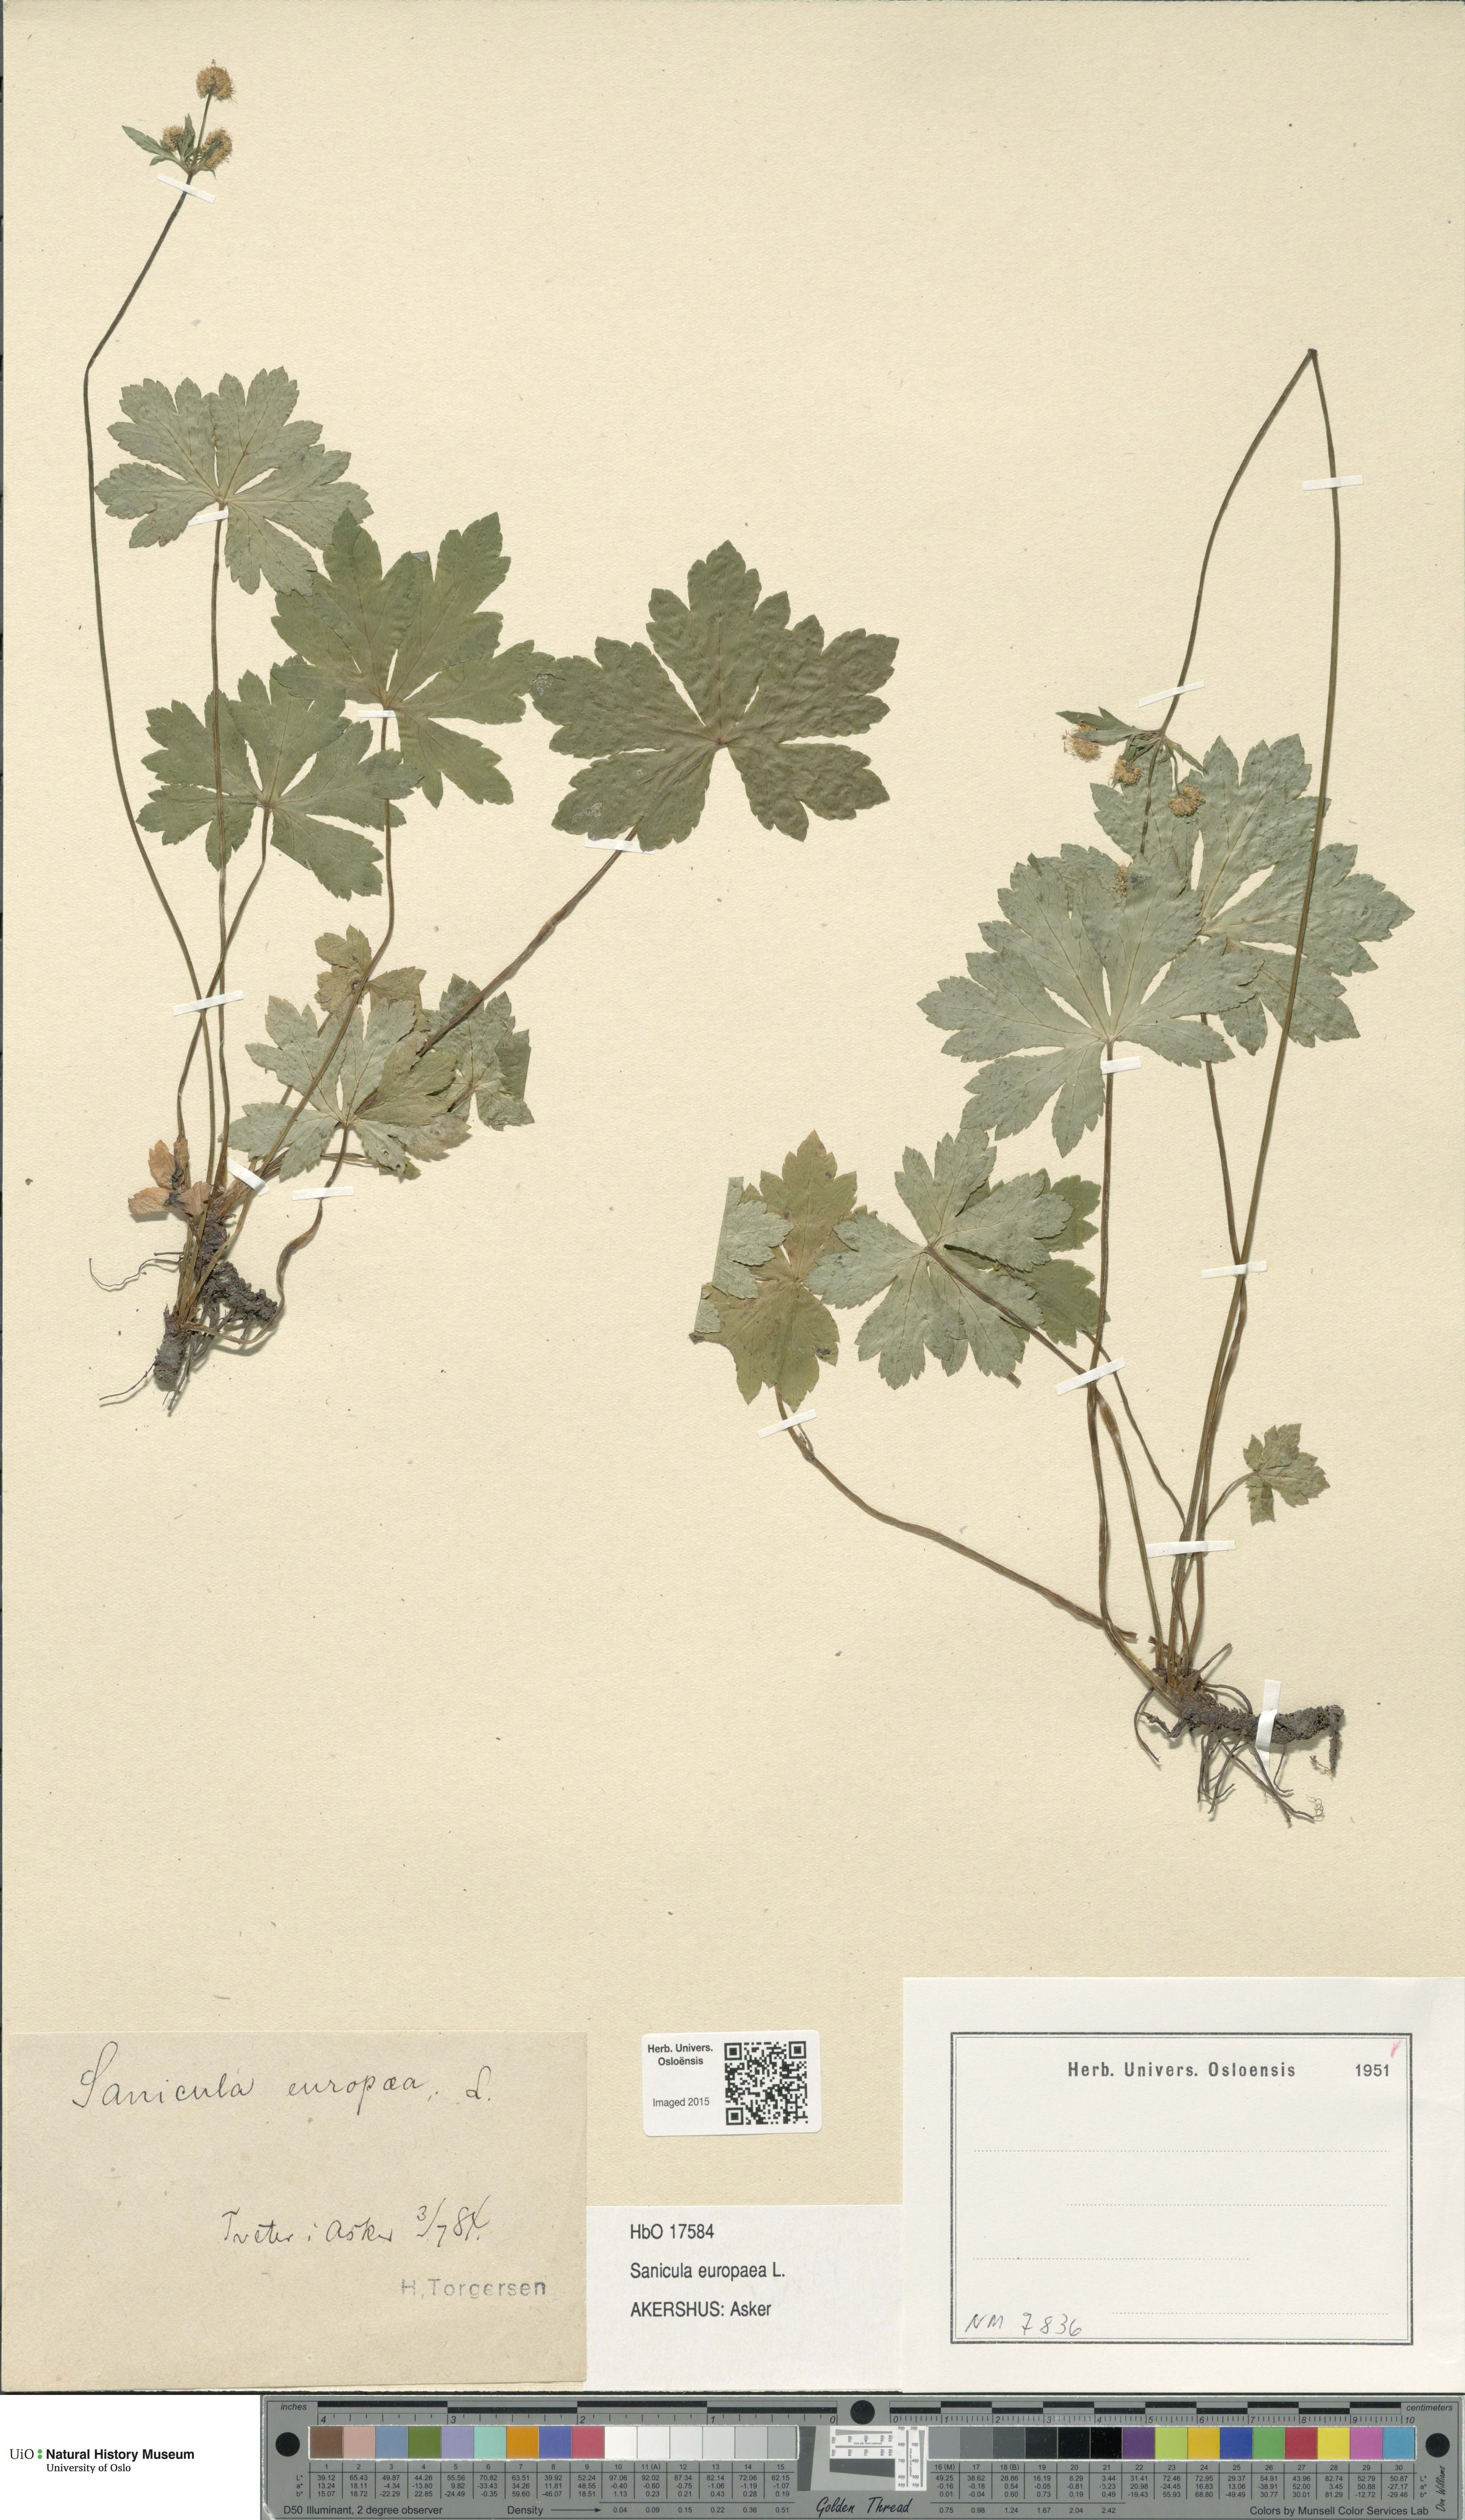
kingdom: Plantae
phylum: Tracheophyta
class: Magnoliopsida
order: Apiales
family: Apiaceae
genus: Sanicula
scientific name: Sanicula europaea
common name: Sanicle
